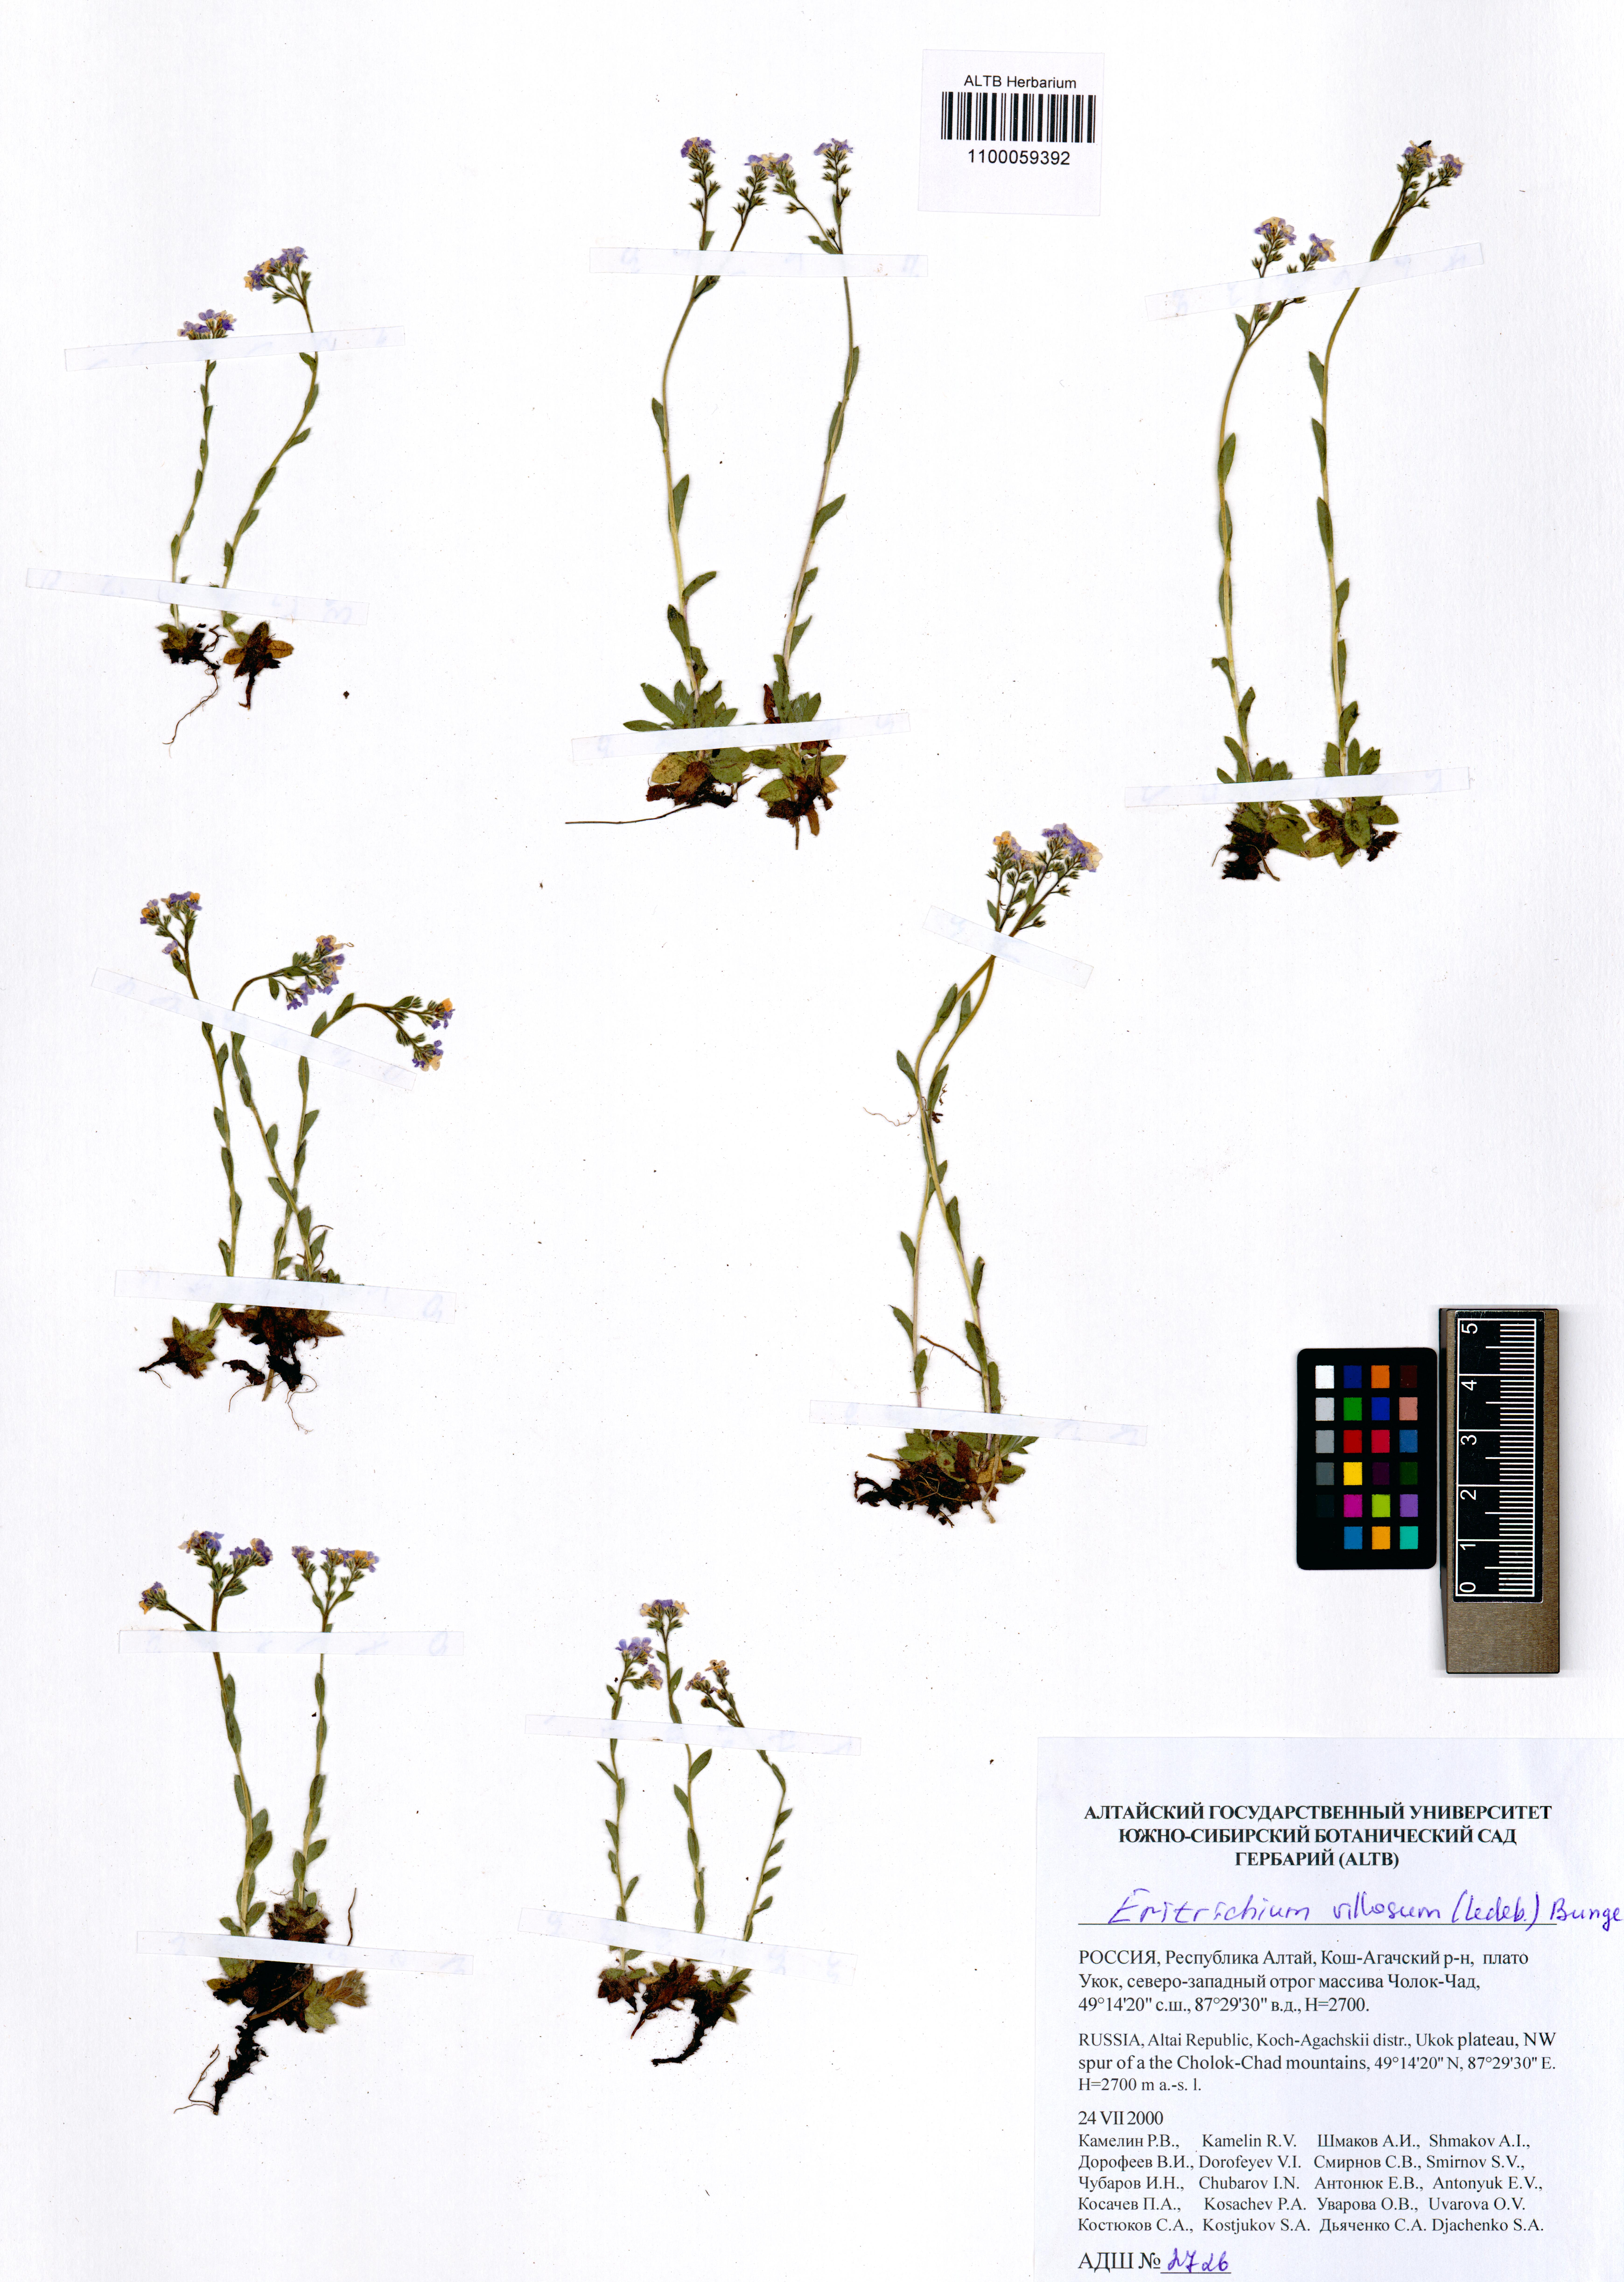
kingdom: Plantae
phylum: Tracheophyta
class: Magnoliopsida
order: Boraginales
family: Boraginaceae
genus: Eritrichium
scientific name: Eritrichium villosum
